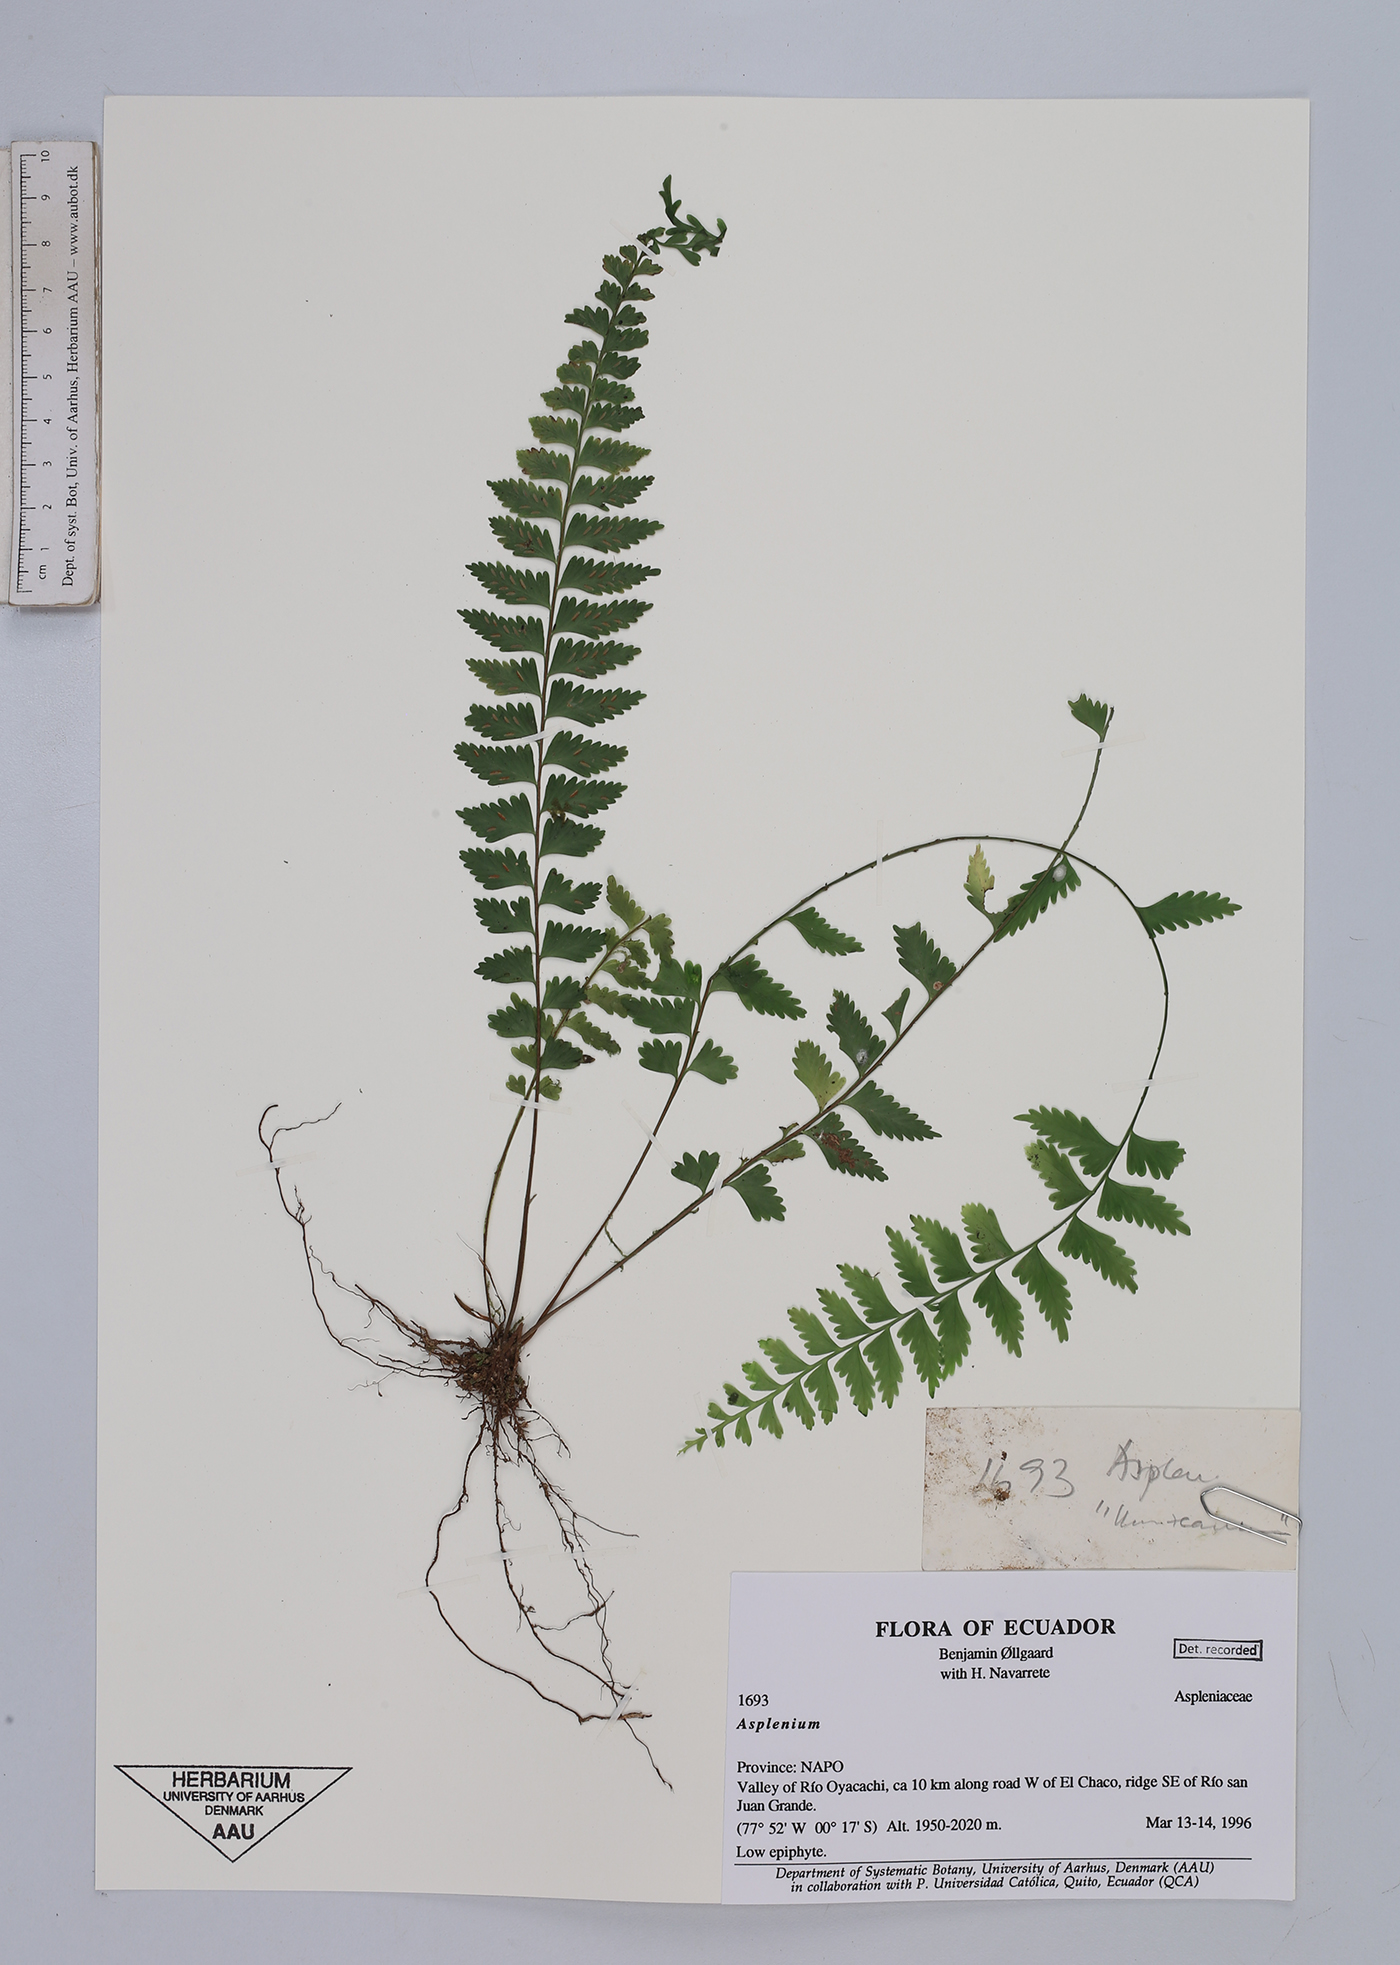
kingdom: Plantae
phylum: Tracheophyta
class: Polypodiopsida
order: Polypodiales
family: Aspleniaceae
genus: Asplenium
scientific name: Asplenium
